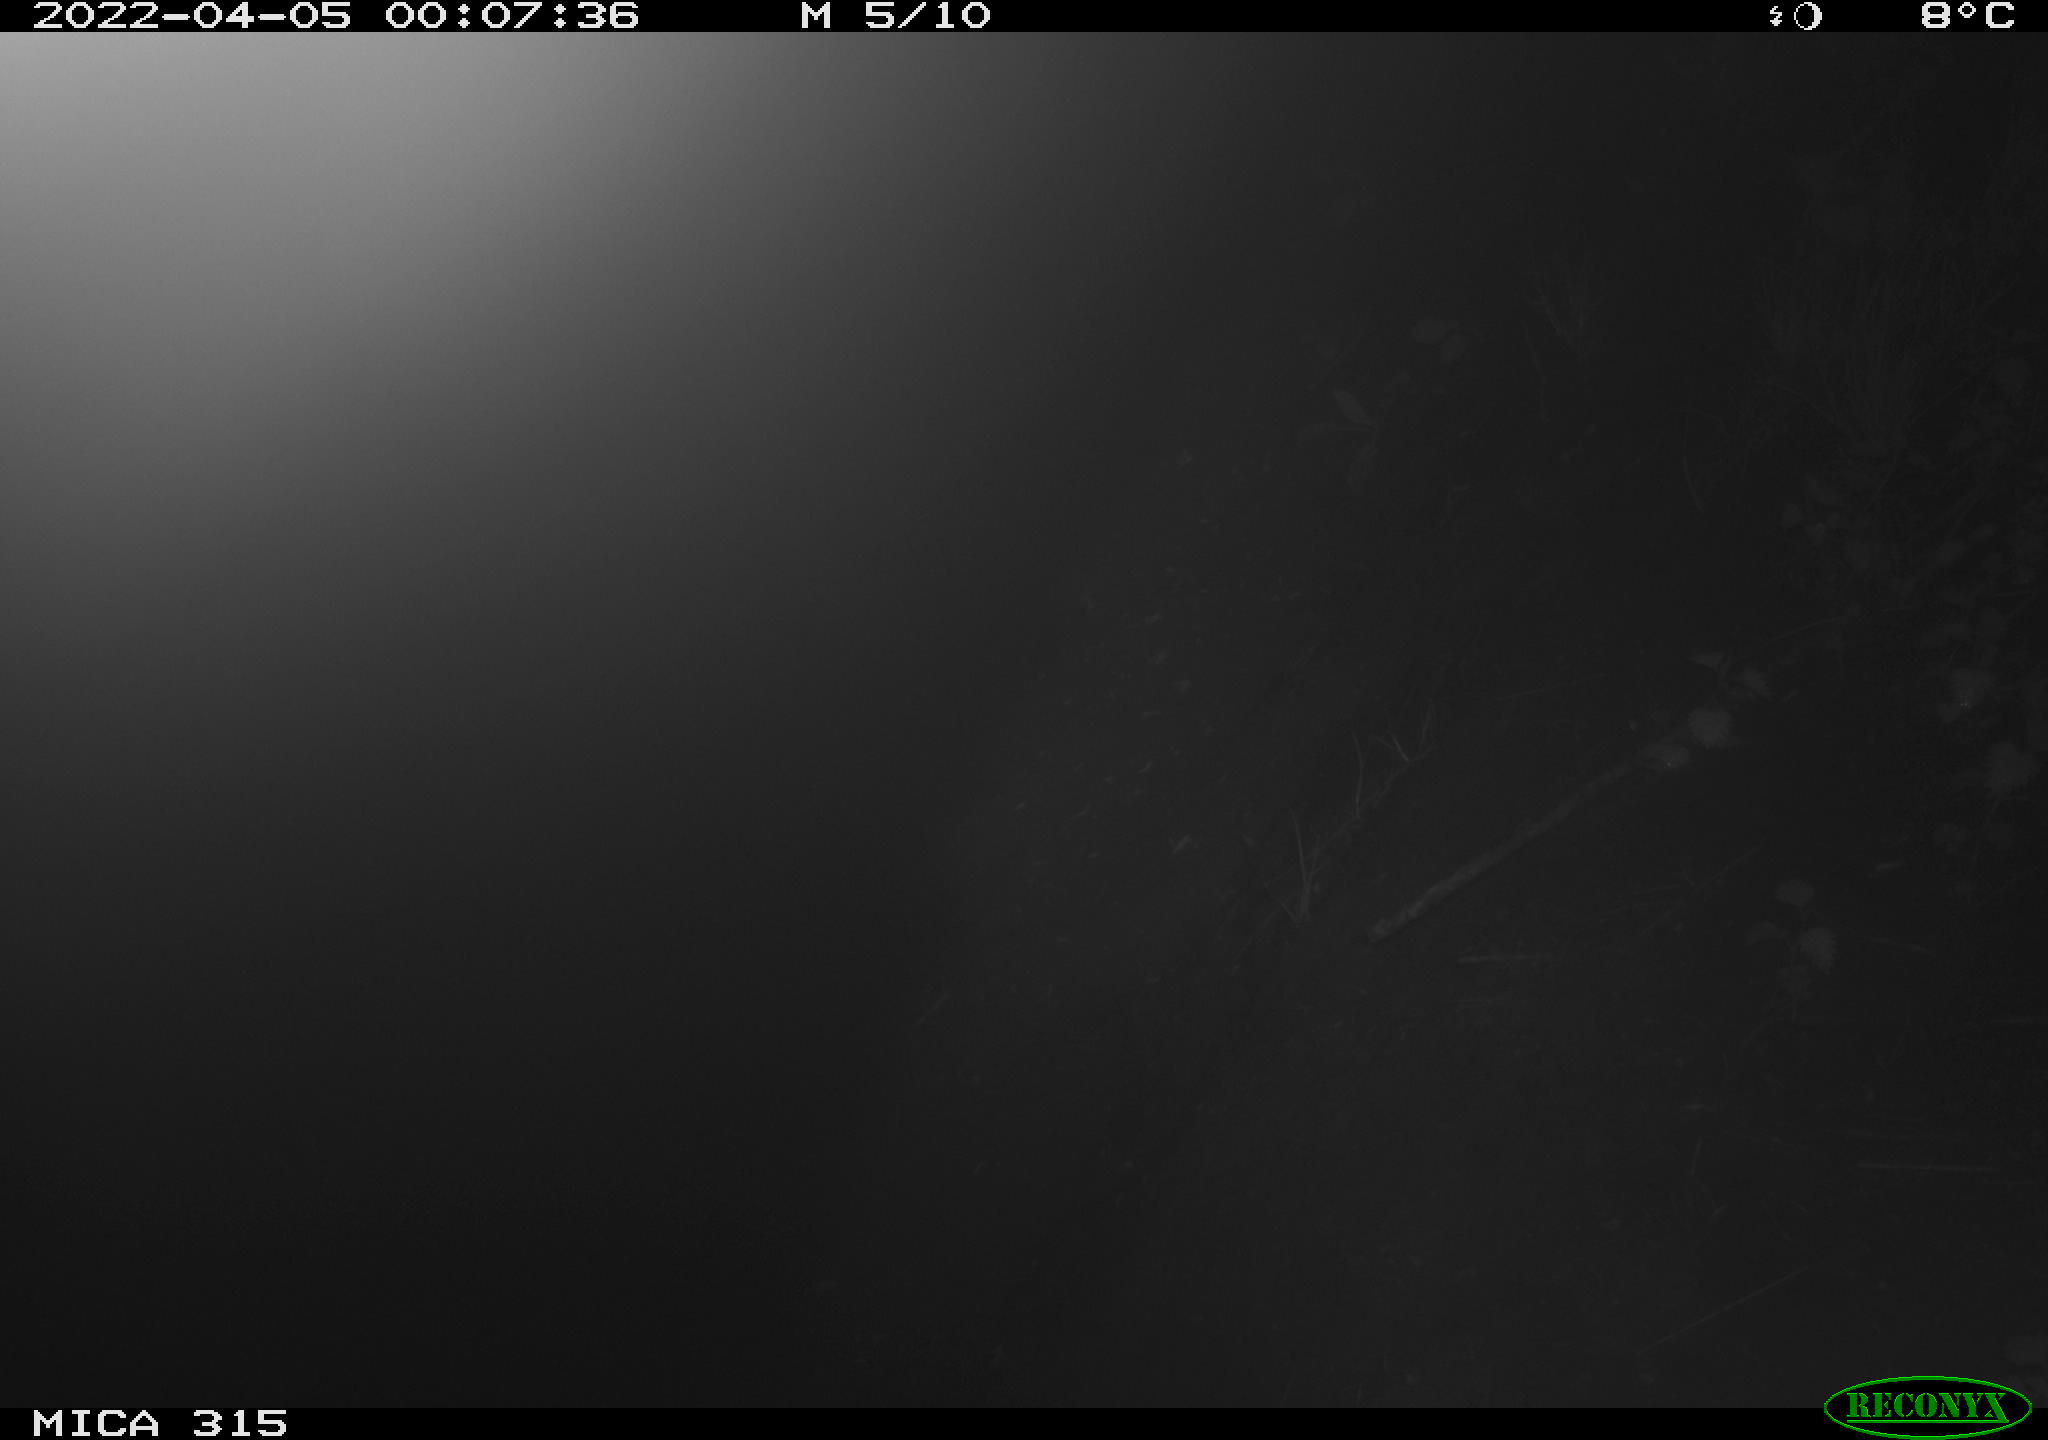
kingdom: Animalia
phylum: Chordata
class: Mammalia
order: Rodentia
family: Cricetidae
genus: Ondatra
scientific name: Ondatra zibethicus
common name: Muskrat
